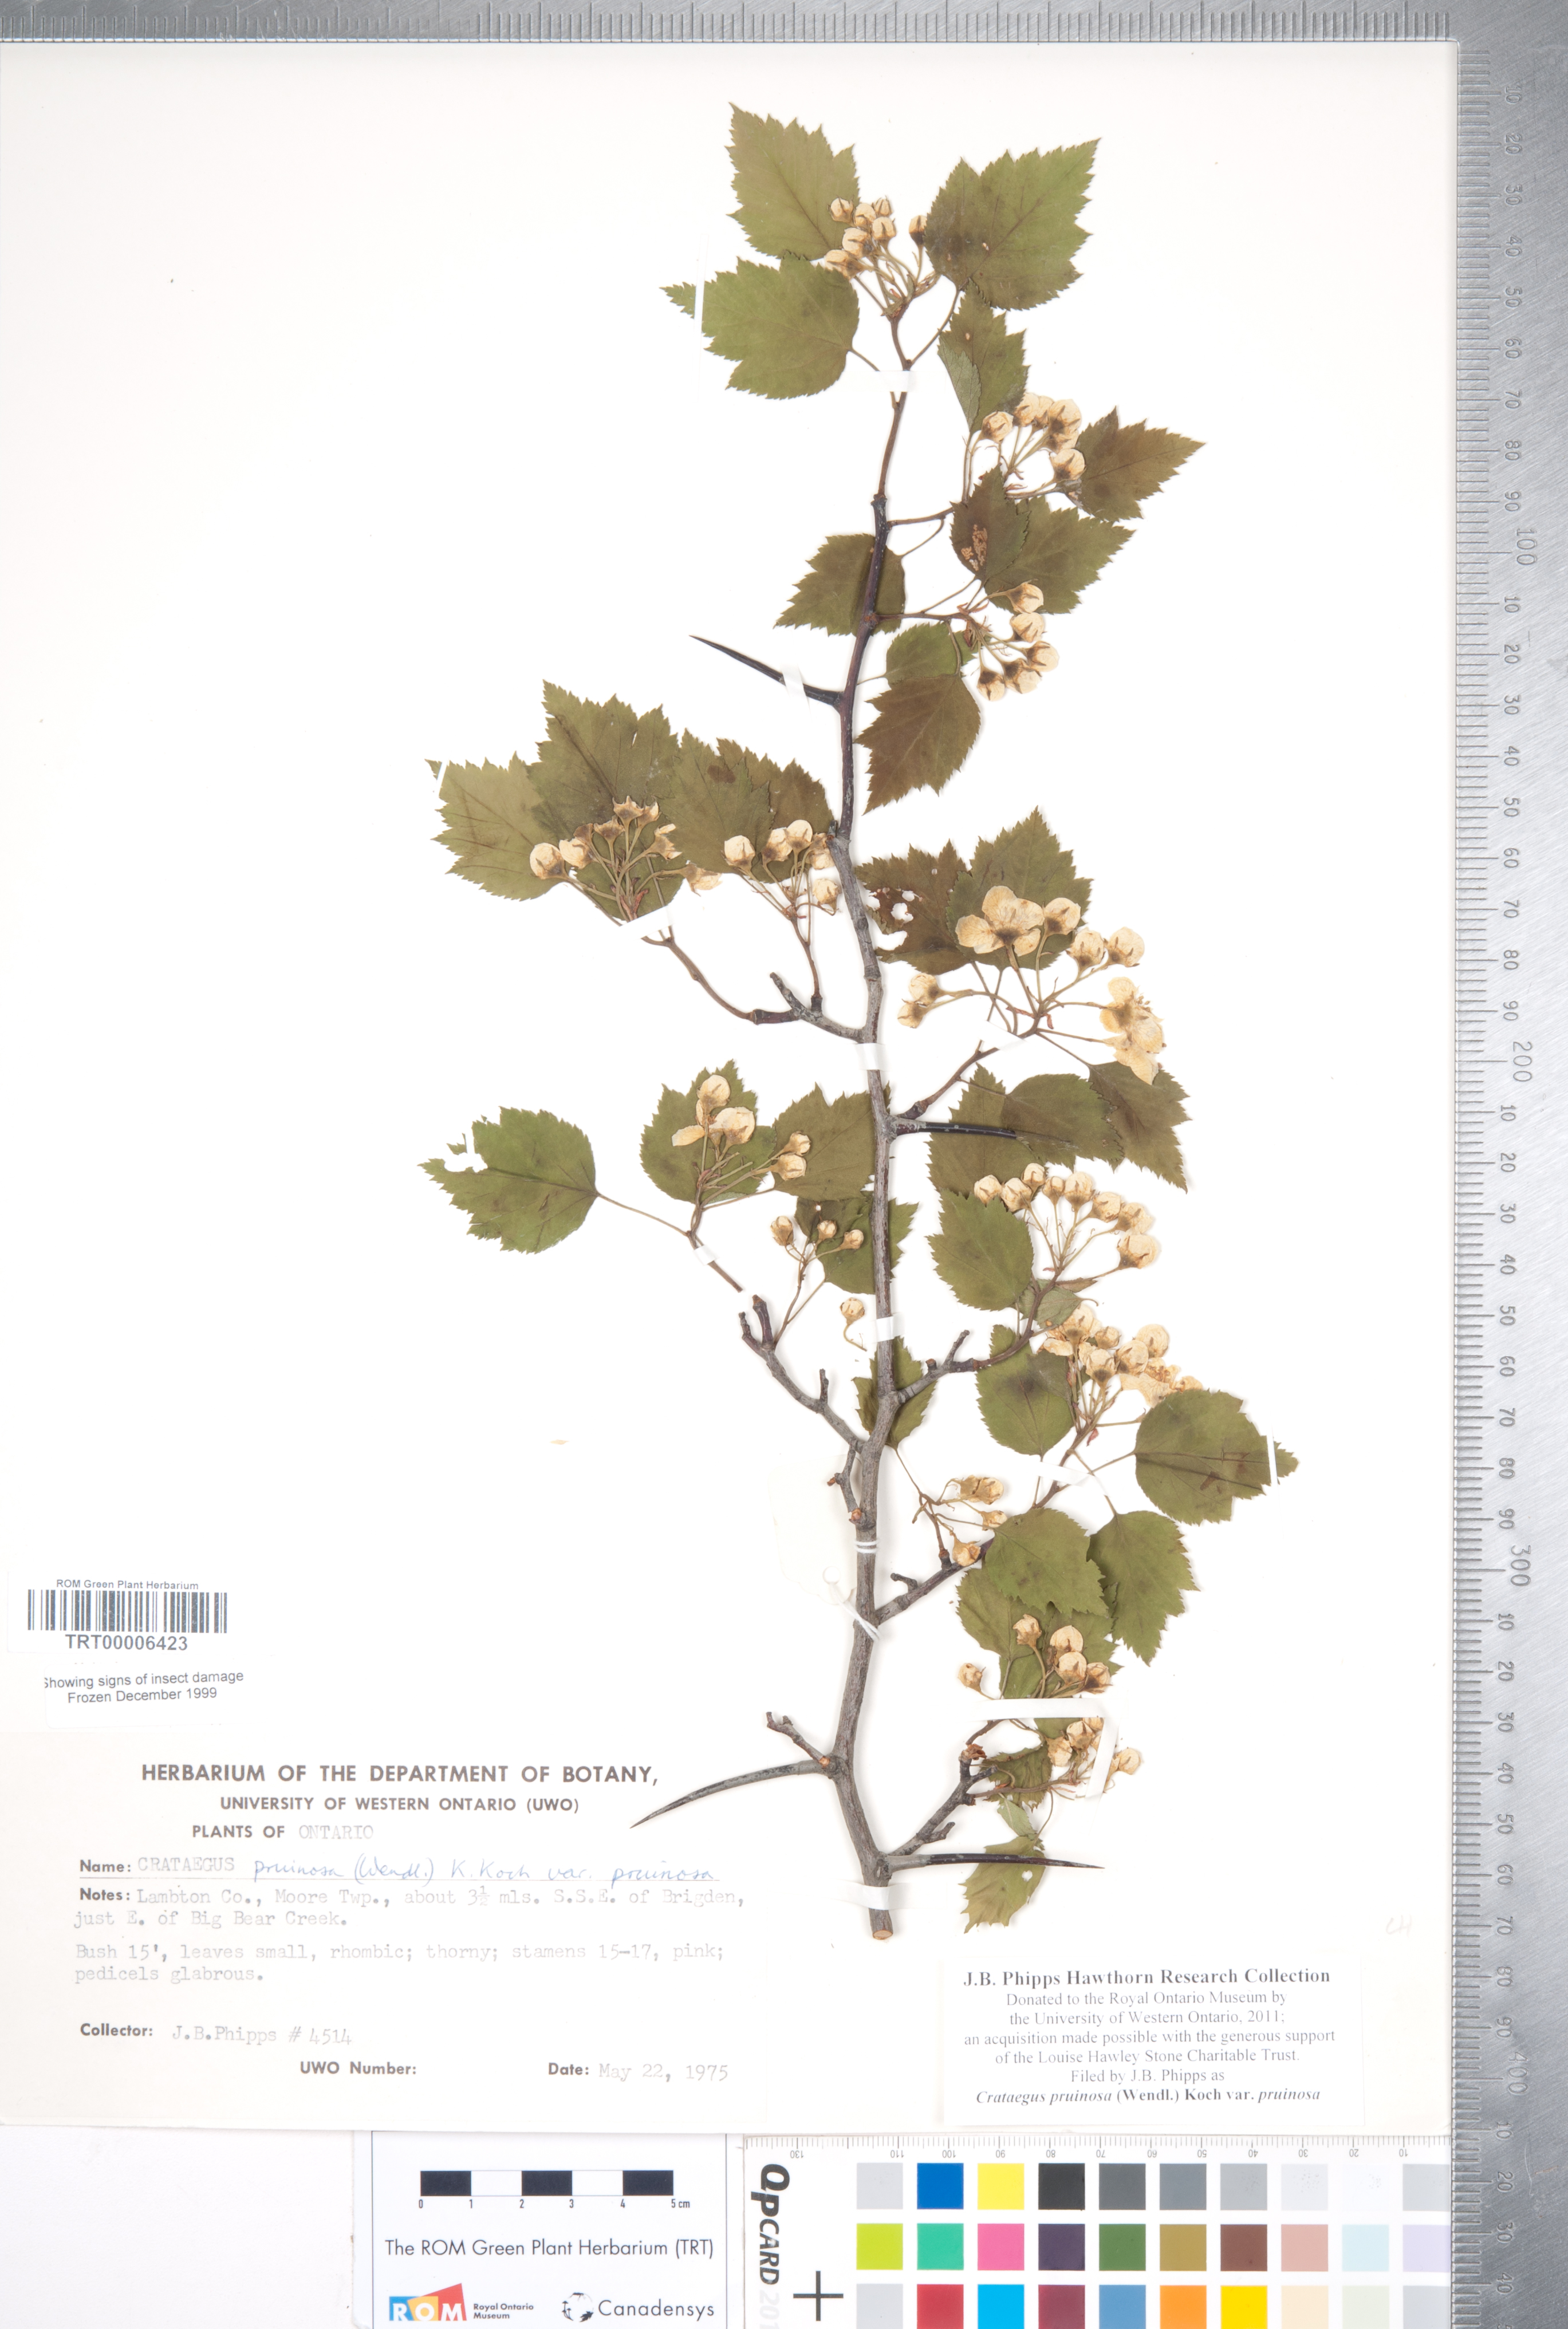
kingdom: Plantae
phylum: Tracheophyta
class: Magnoliopsida
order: Rosales
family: Rosaceae
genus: Crataegus
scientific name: Crataegus pruinosa
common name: Waxy-fruit hawthorn
